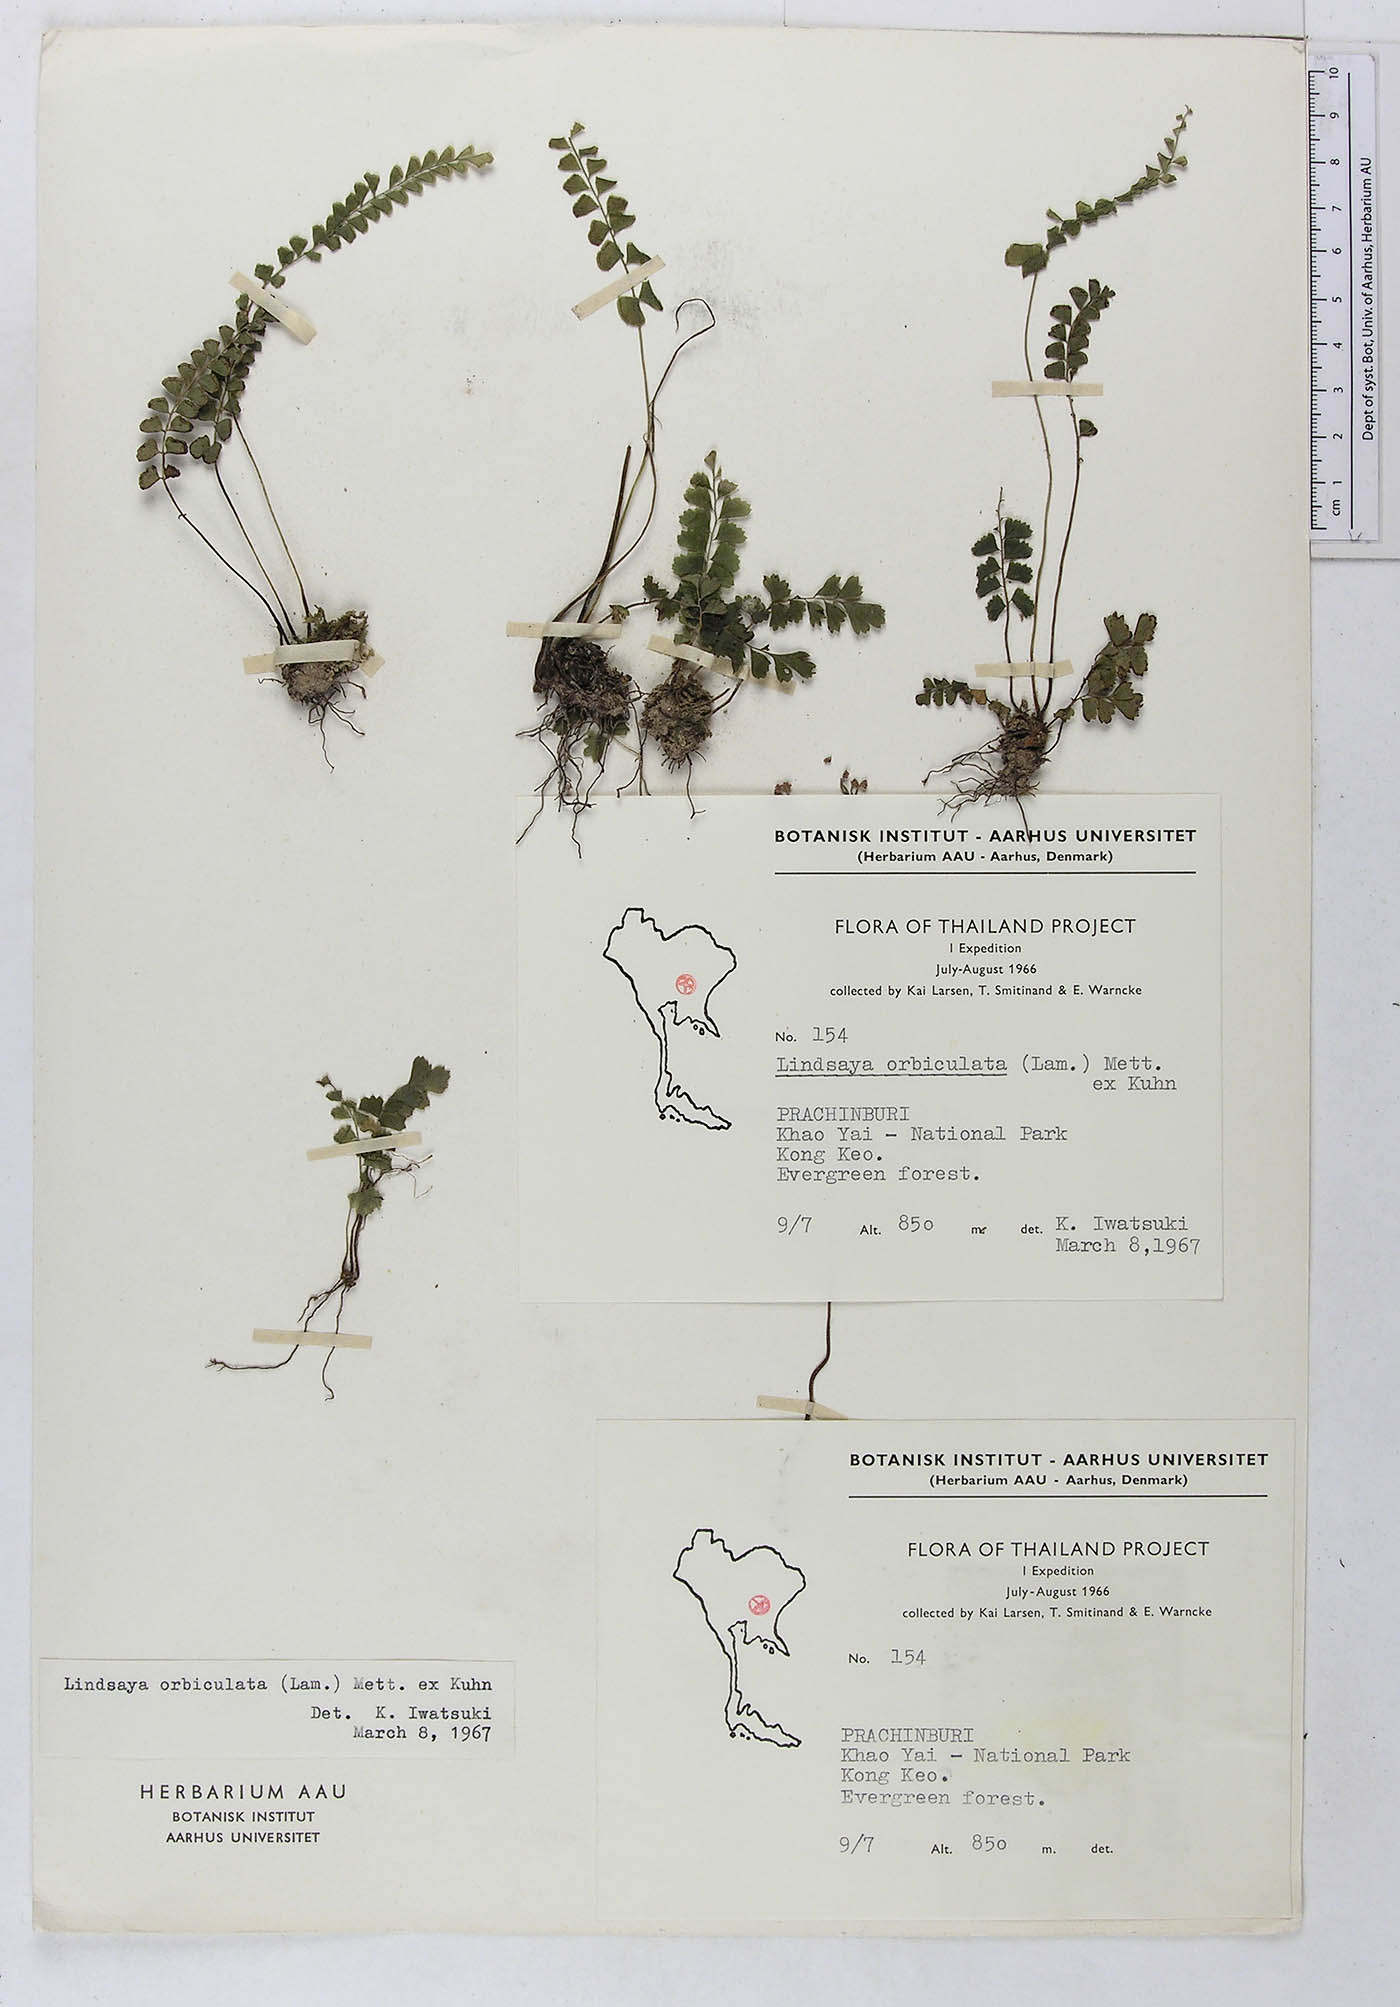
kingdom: Plantae
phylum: Tracheophyta
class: Polypodiopsida
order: Polypodiales
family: Lindsaeaceae
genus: Lindsaea
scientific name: Lindsaea orbiculata
